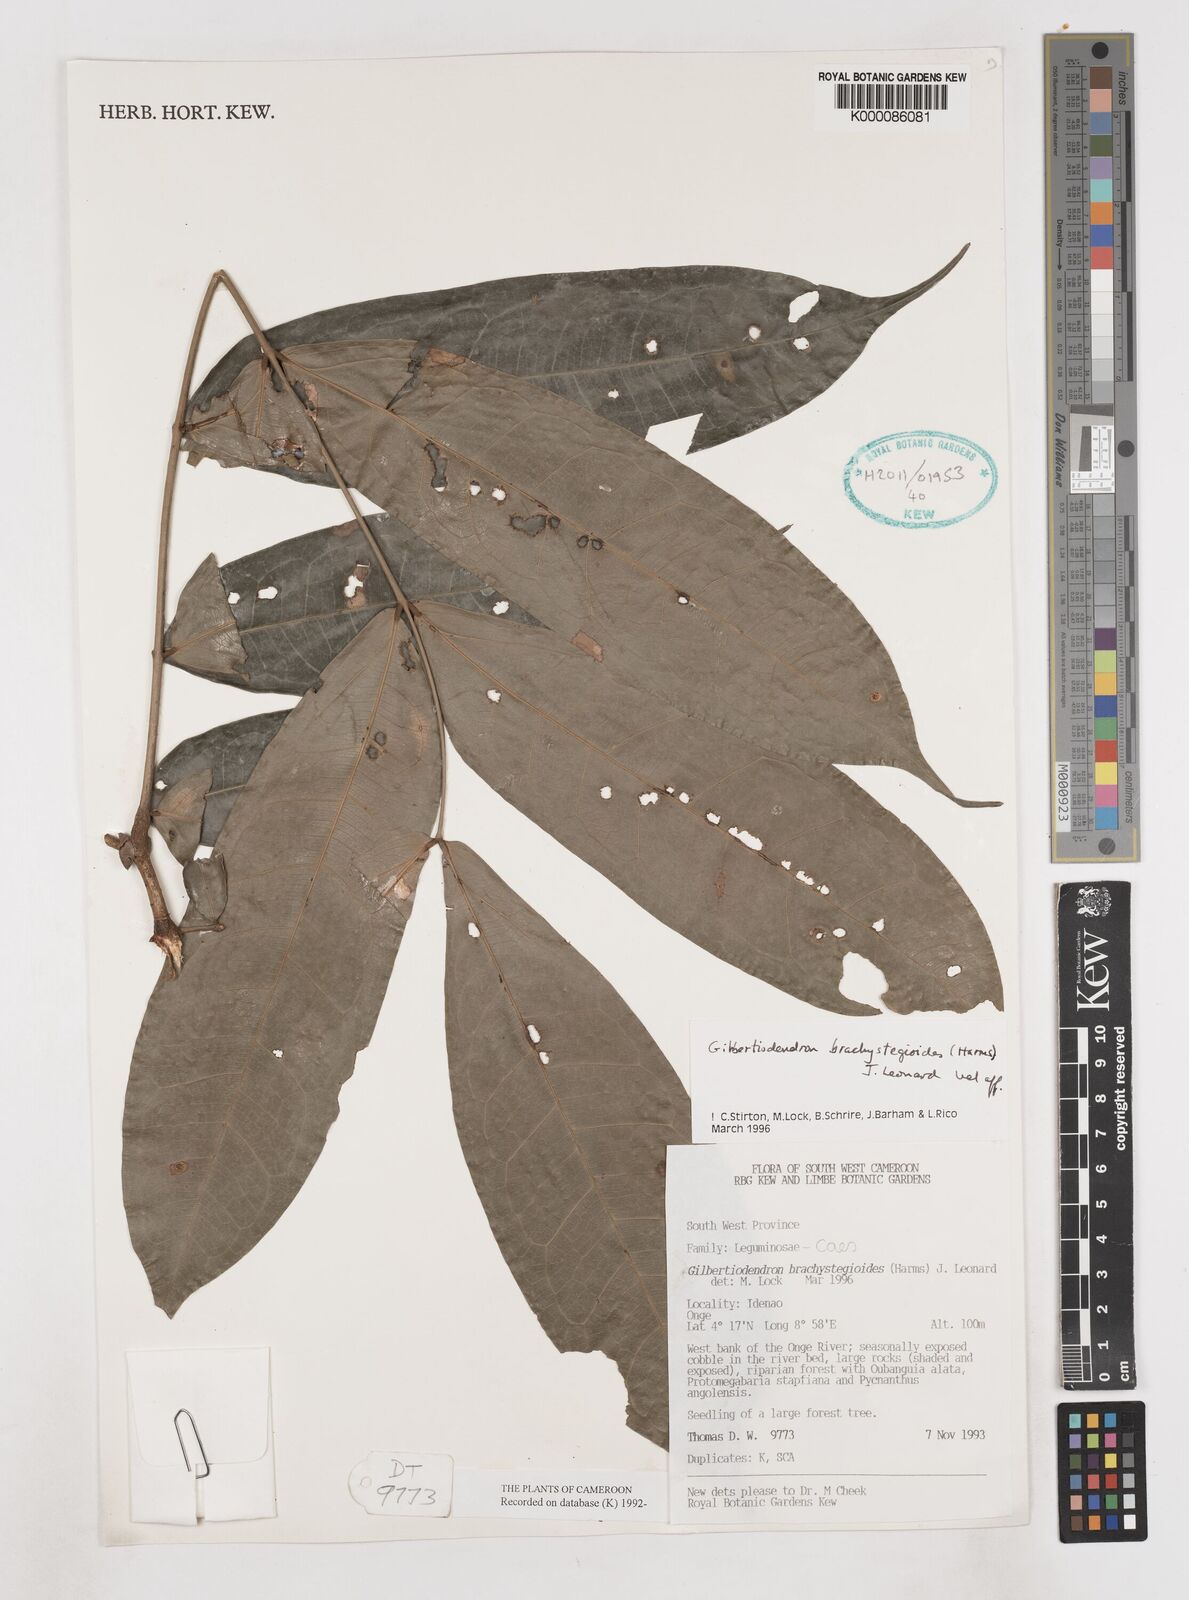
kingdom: Plantae
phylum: Tracheophyta
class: Magnoliopsida
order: Fabales
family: Fabaceae
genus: Gilbertiodendron
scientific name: Gilbertiodendron brachystegioides
